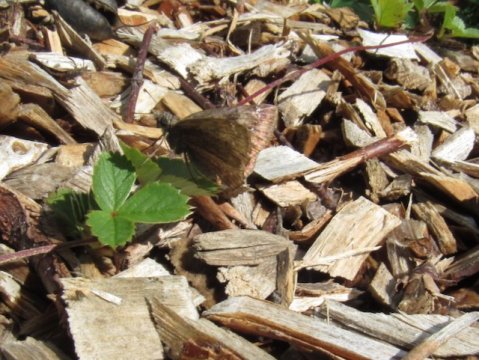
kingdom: Animalia
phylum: Arthropoda
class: Insecta
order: Lepidoptera
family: Hesperiidae
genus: Gesta
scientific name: Gesta
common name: Wild Indigo Duskywing
